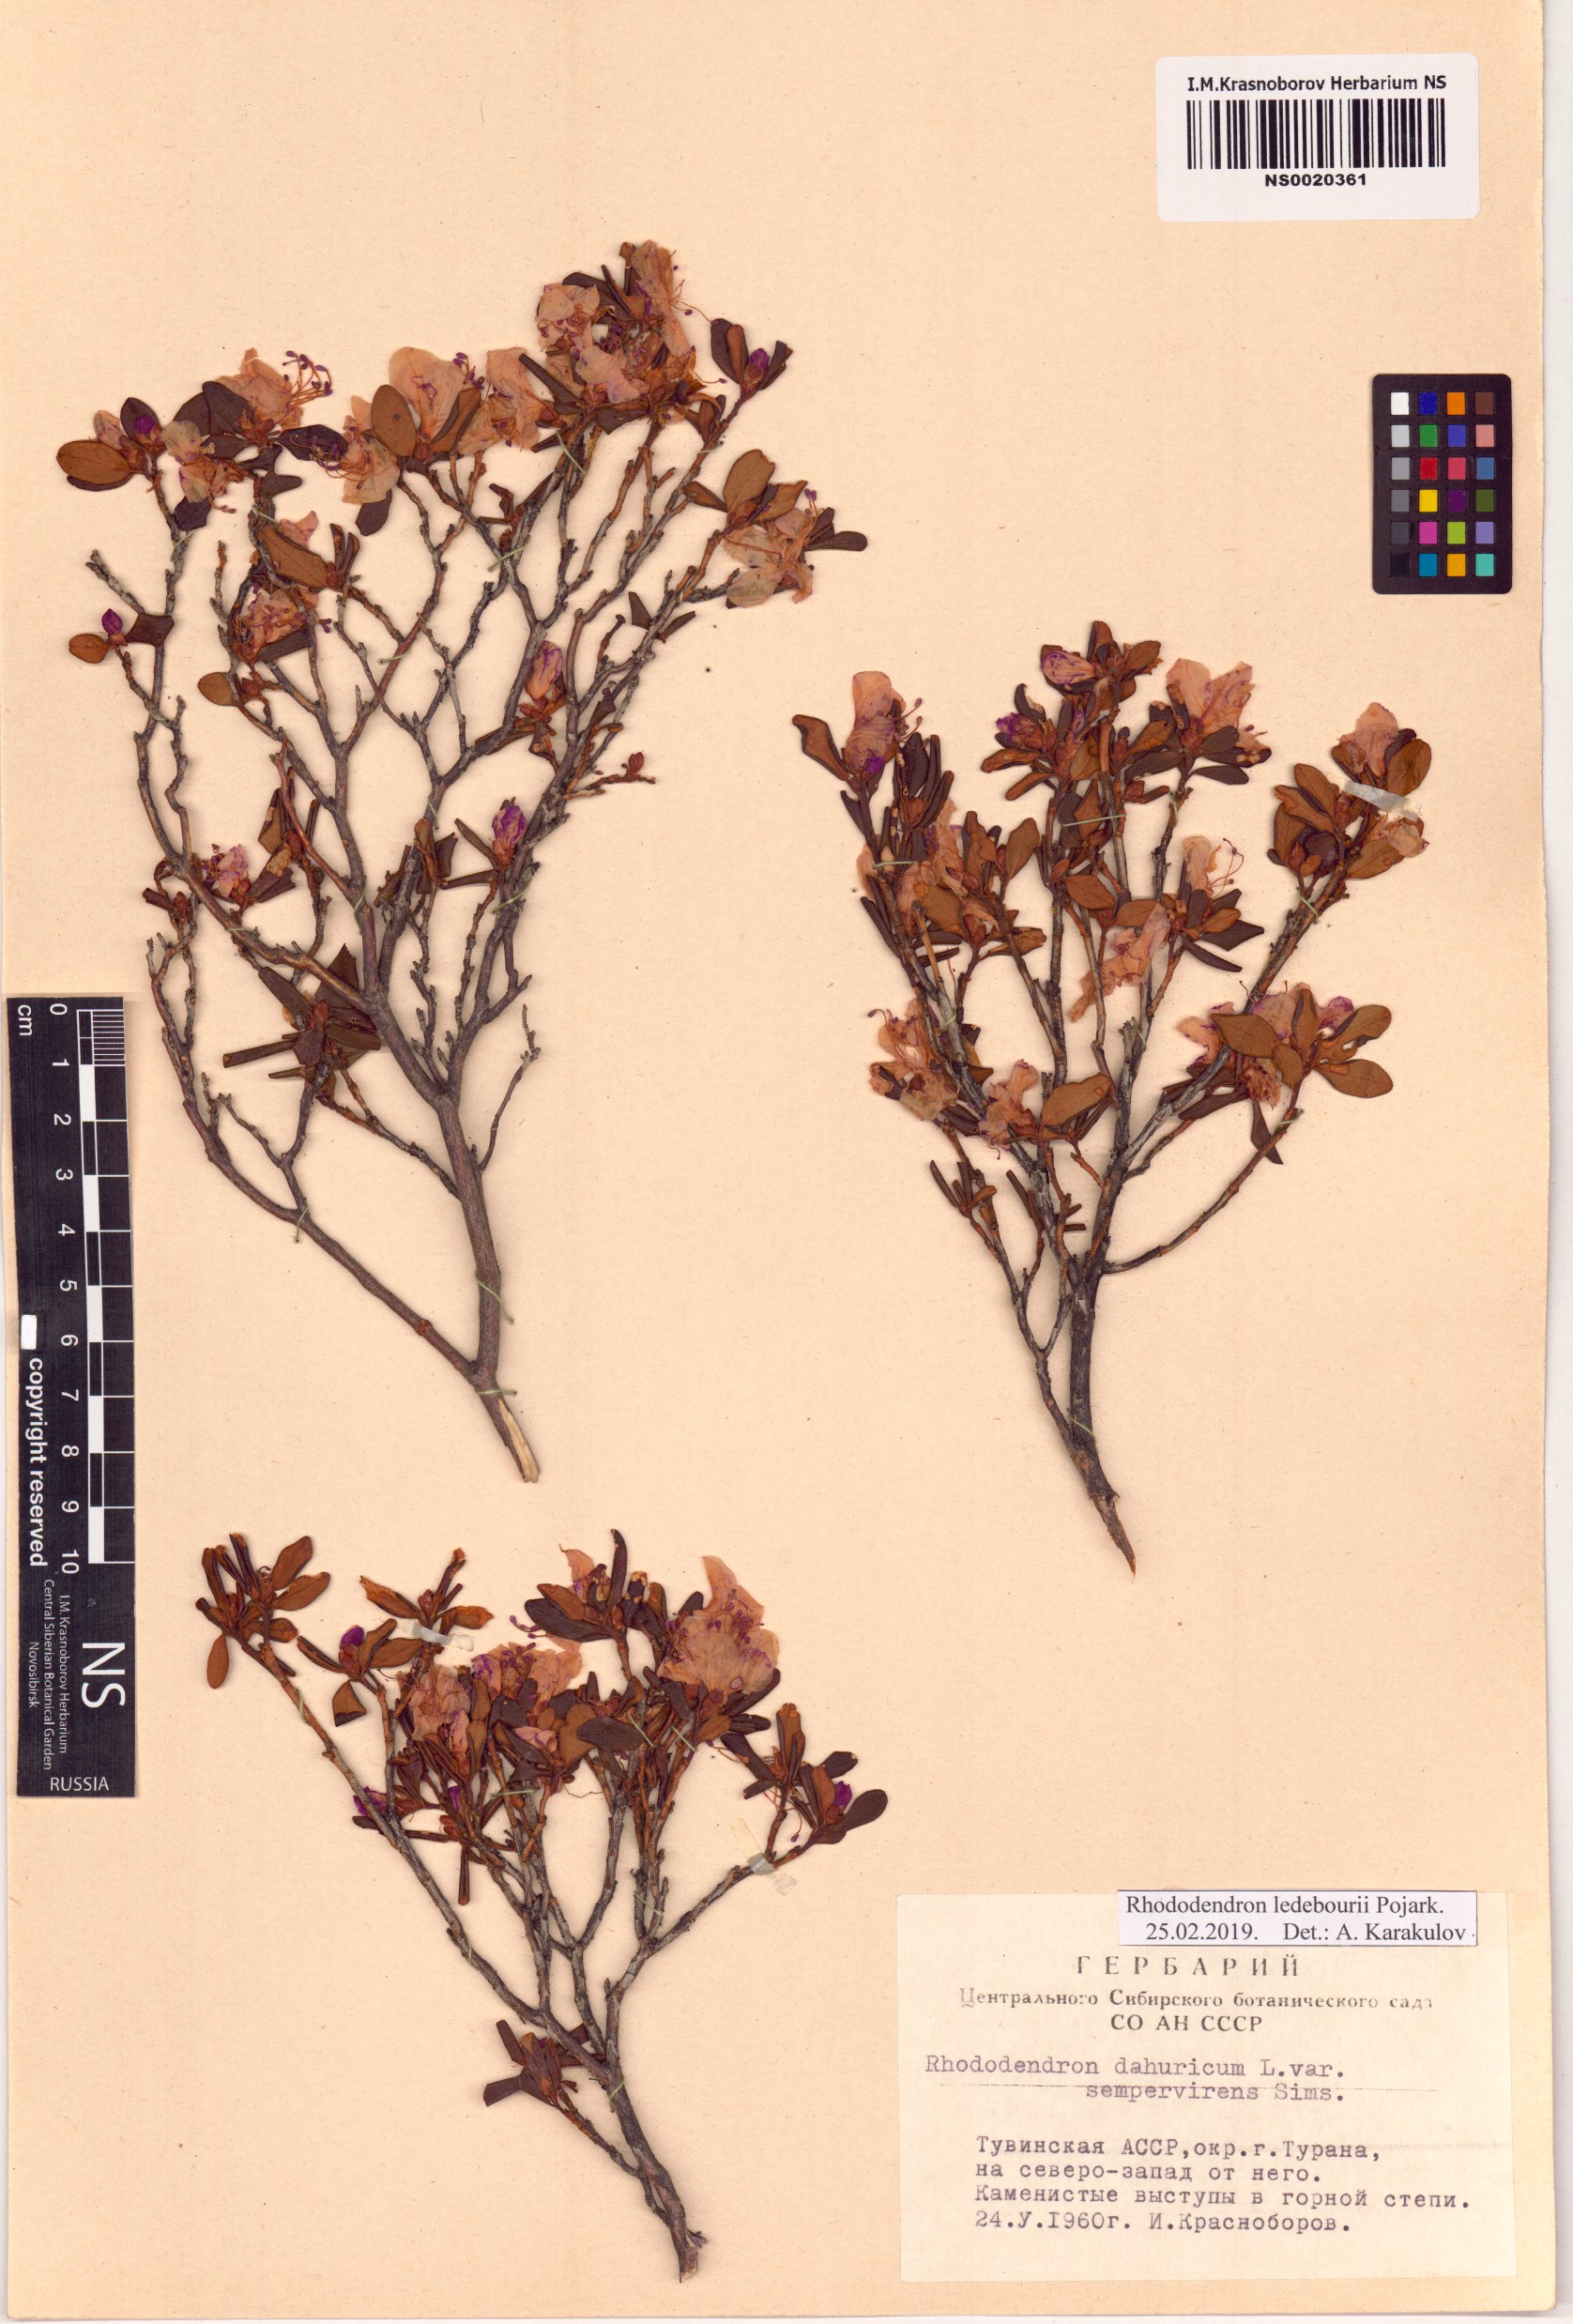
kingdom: Plantae
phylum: Tracheophyta
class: Magnoliopsida
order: Ericales
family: Ericaceae
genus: Rhododendron
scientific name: Rhododendron dauricum
